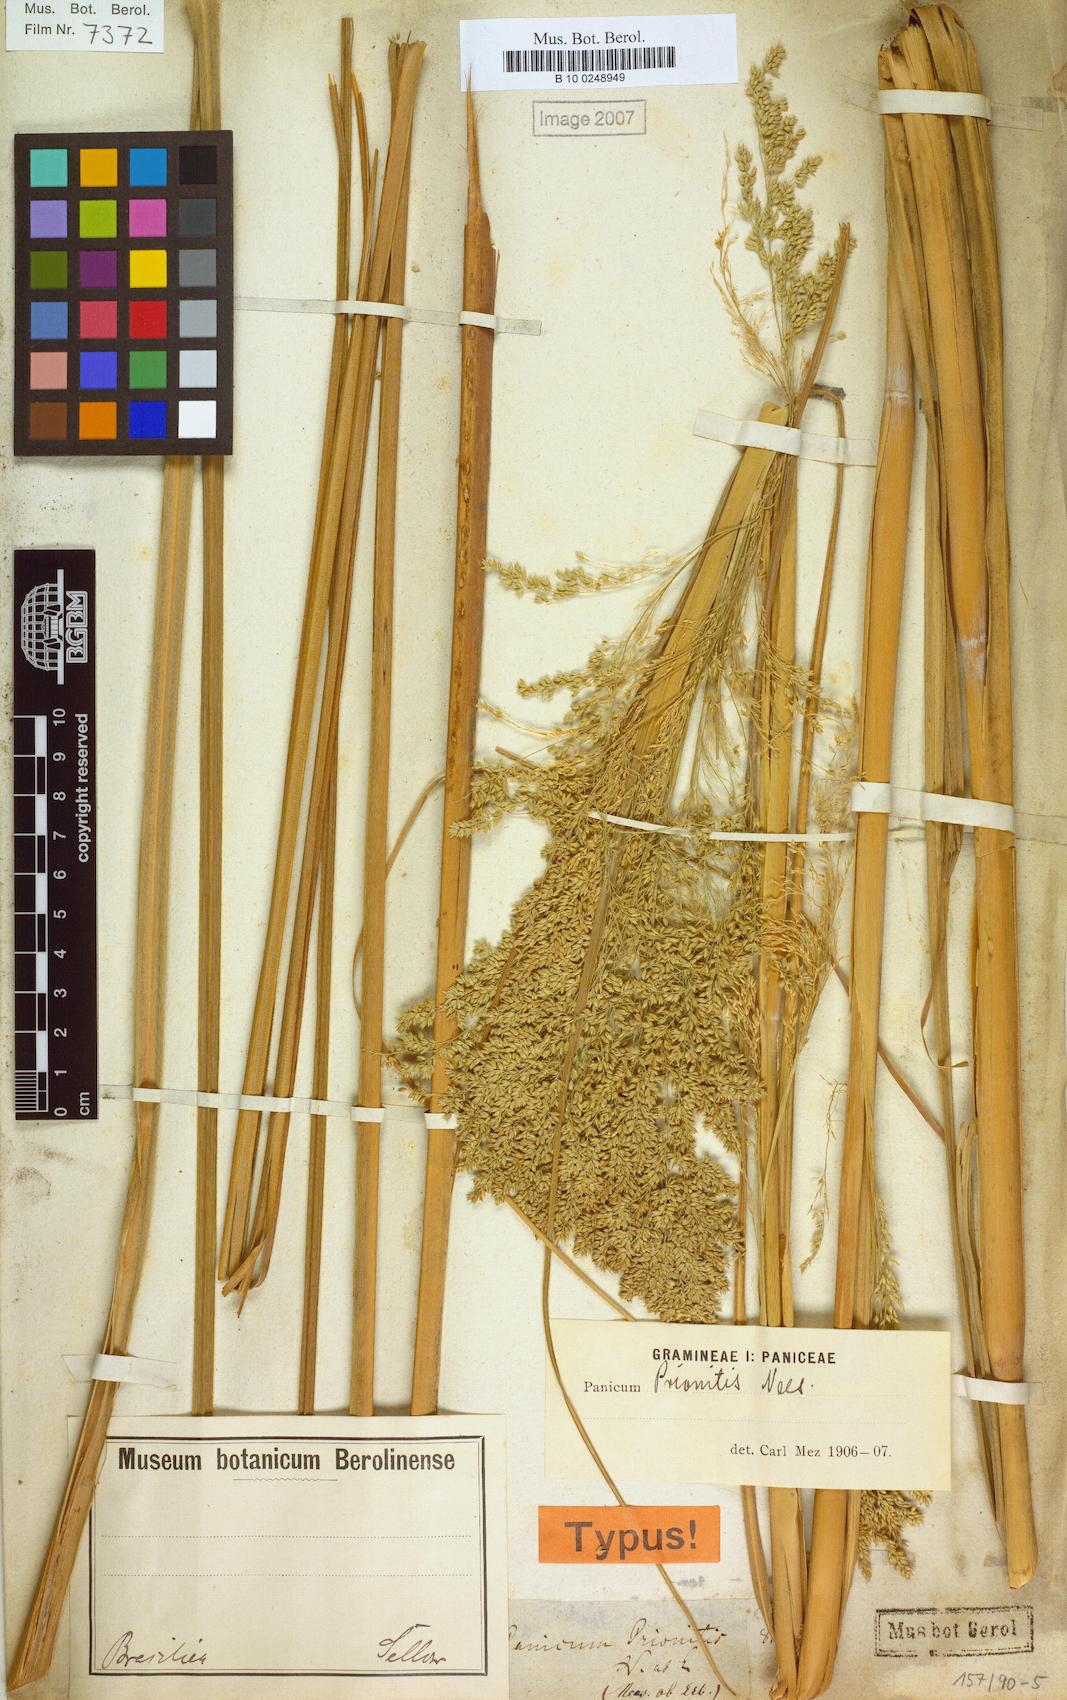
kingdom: Plantae
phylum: Tracheophyta
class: Liliopsida
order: Poales
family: Poaceae
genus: Coleataenia
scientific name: Coleataenia prionitis
